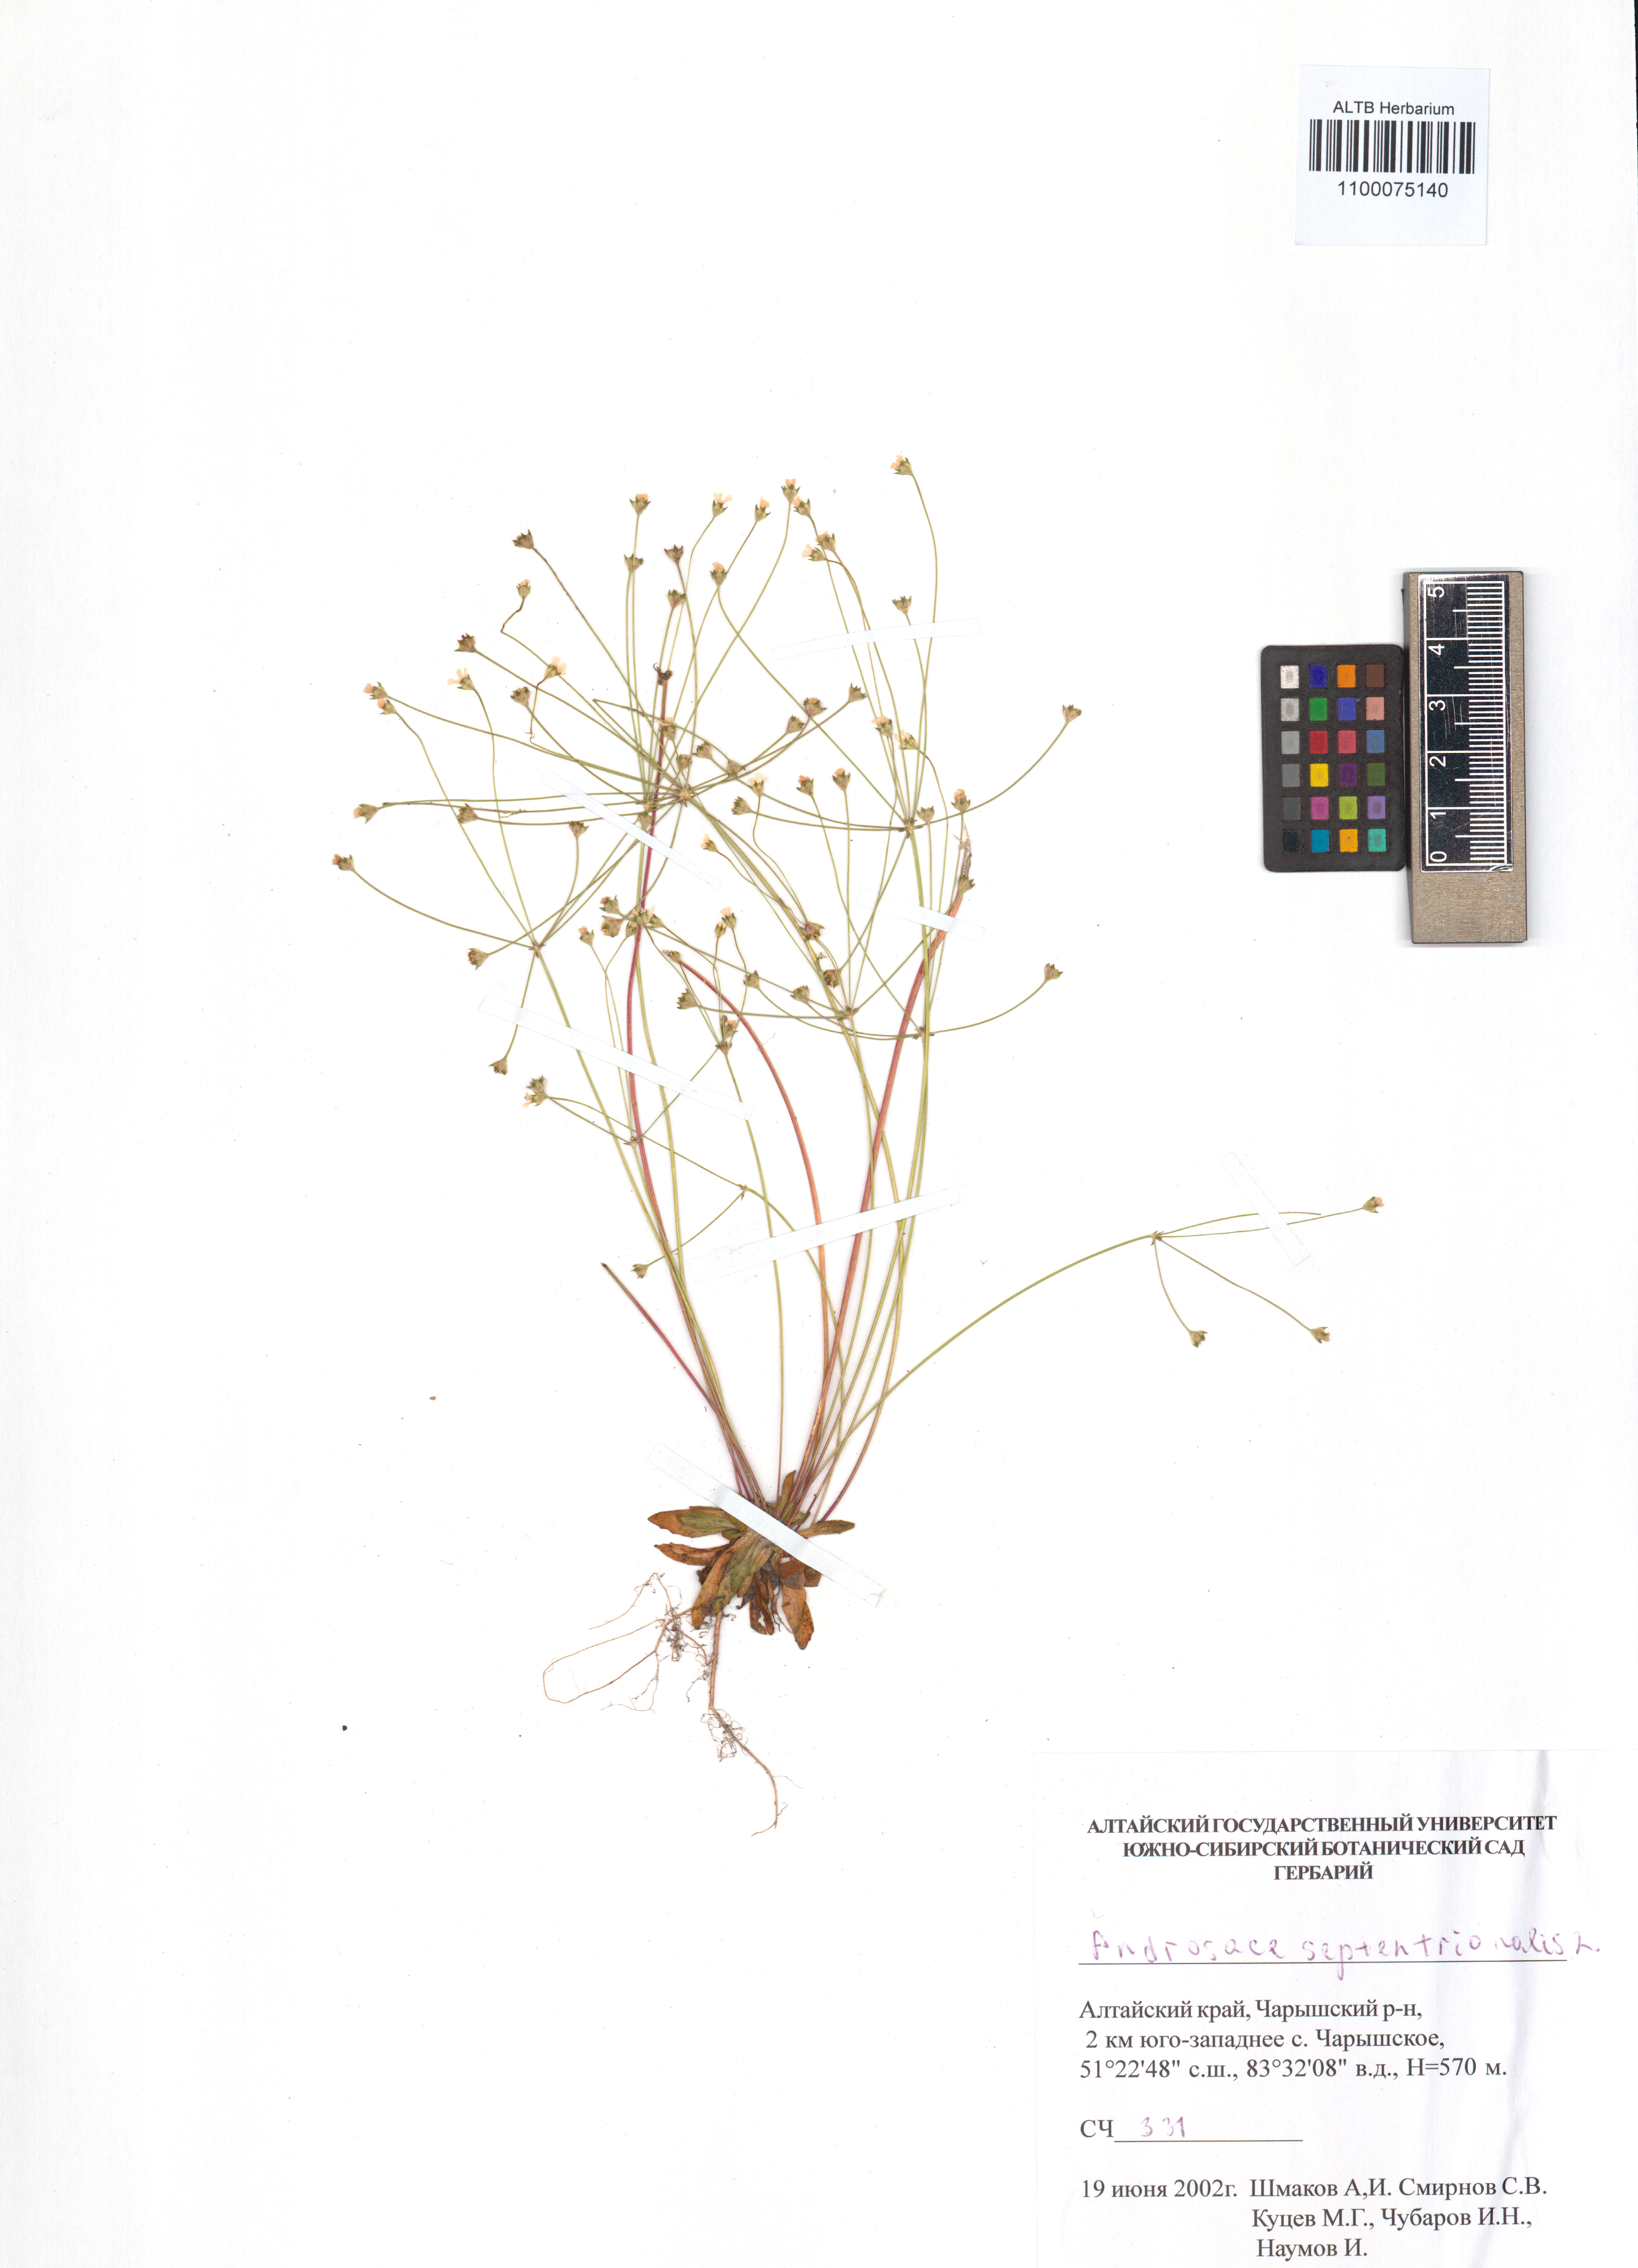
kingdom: Plantae
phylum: Tracheophyta
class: Magnoliopsida
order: Ericales
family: Primulaceae
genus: Androsace
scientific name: Androsace septentrionalis
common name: Hairy northern fairy-candelabra
